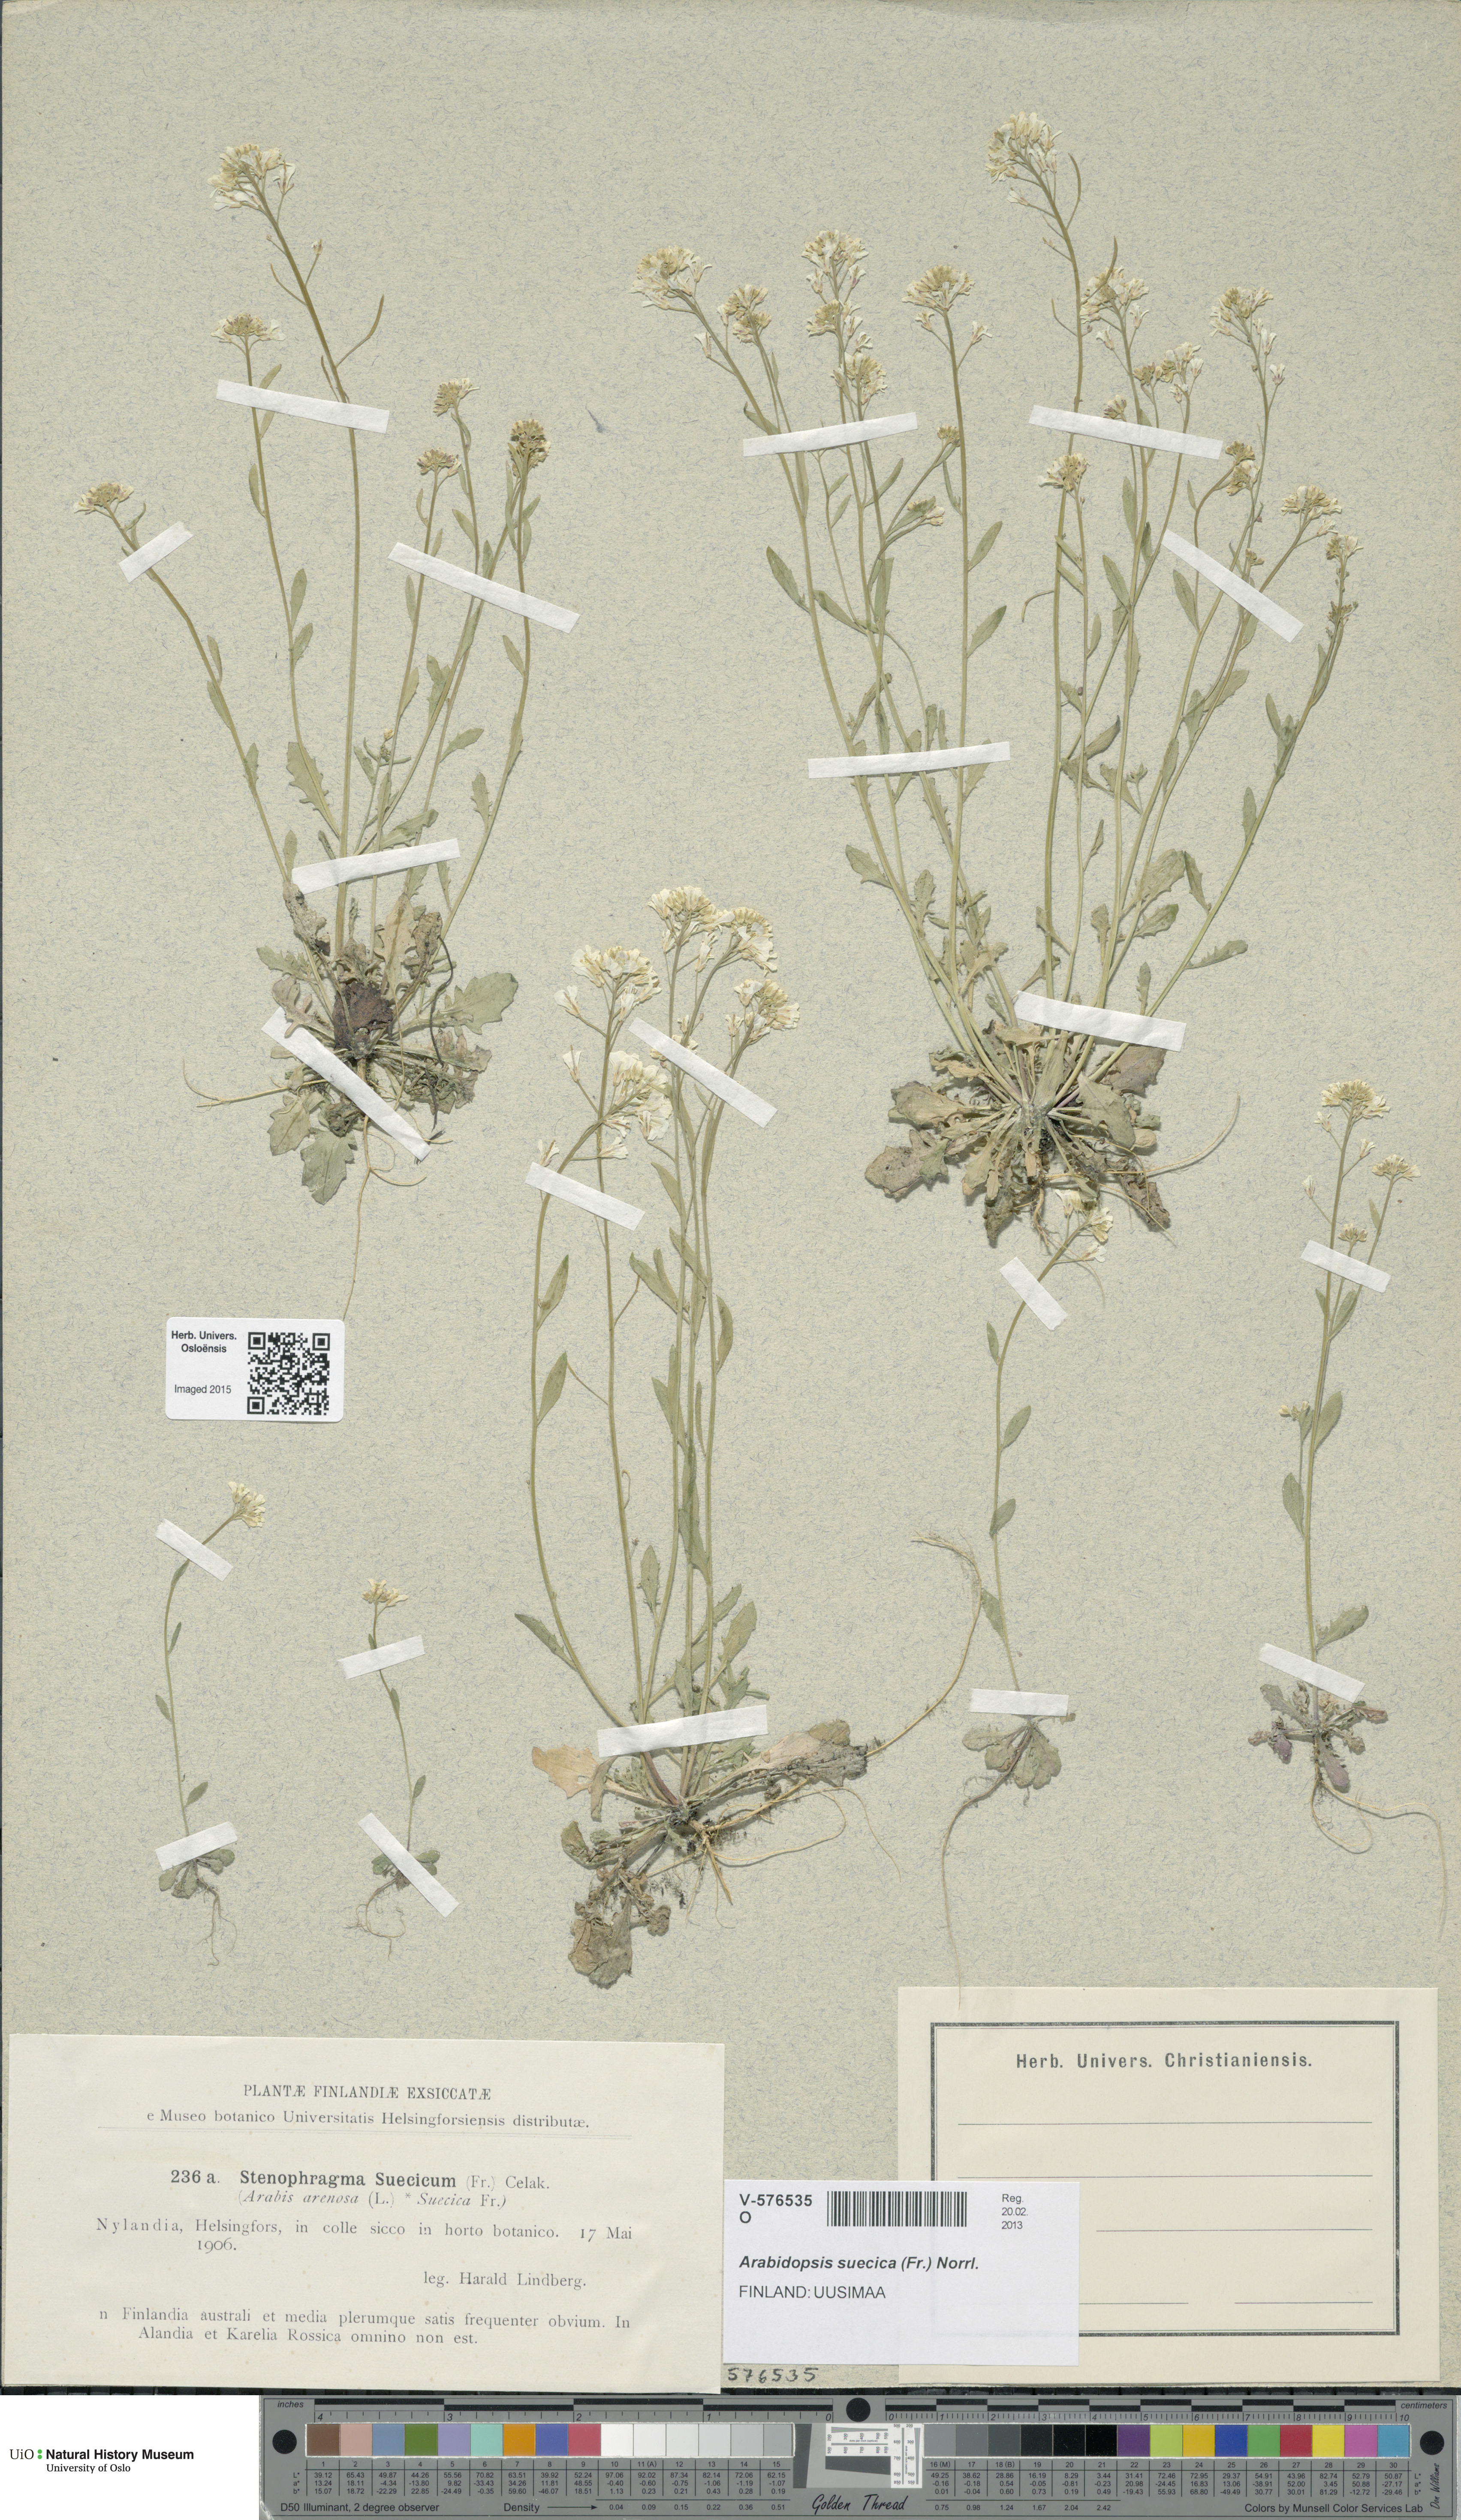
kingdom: Plantae
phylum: Tracheophyta
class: Magnoliopsida
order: Brassicales
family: Brassicaceae
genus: Arabidopsis
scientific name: Arabidopsis suecica
